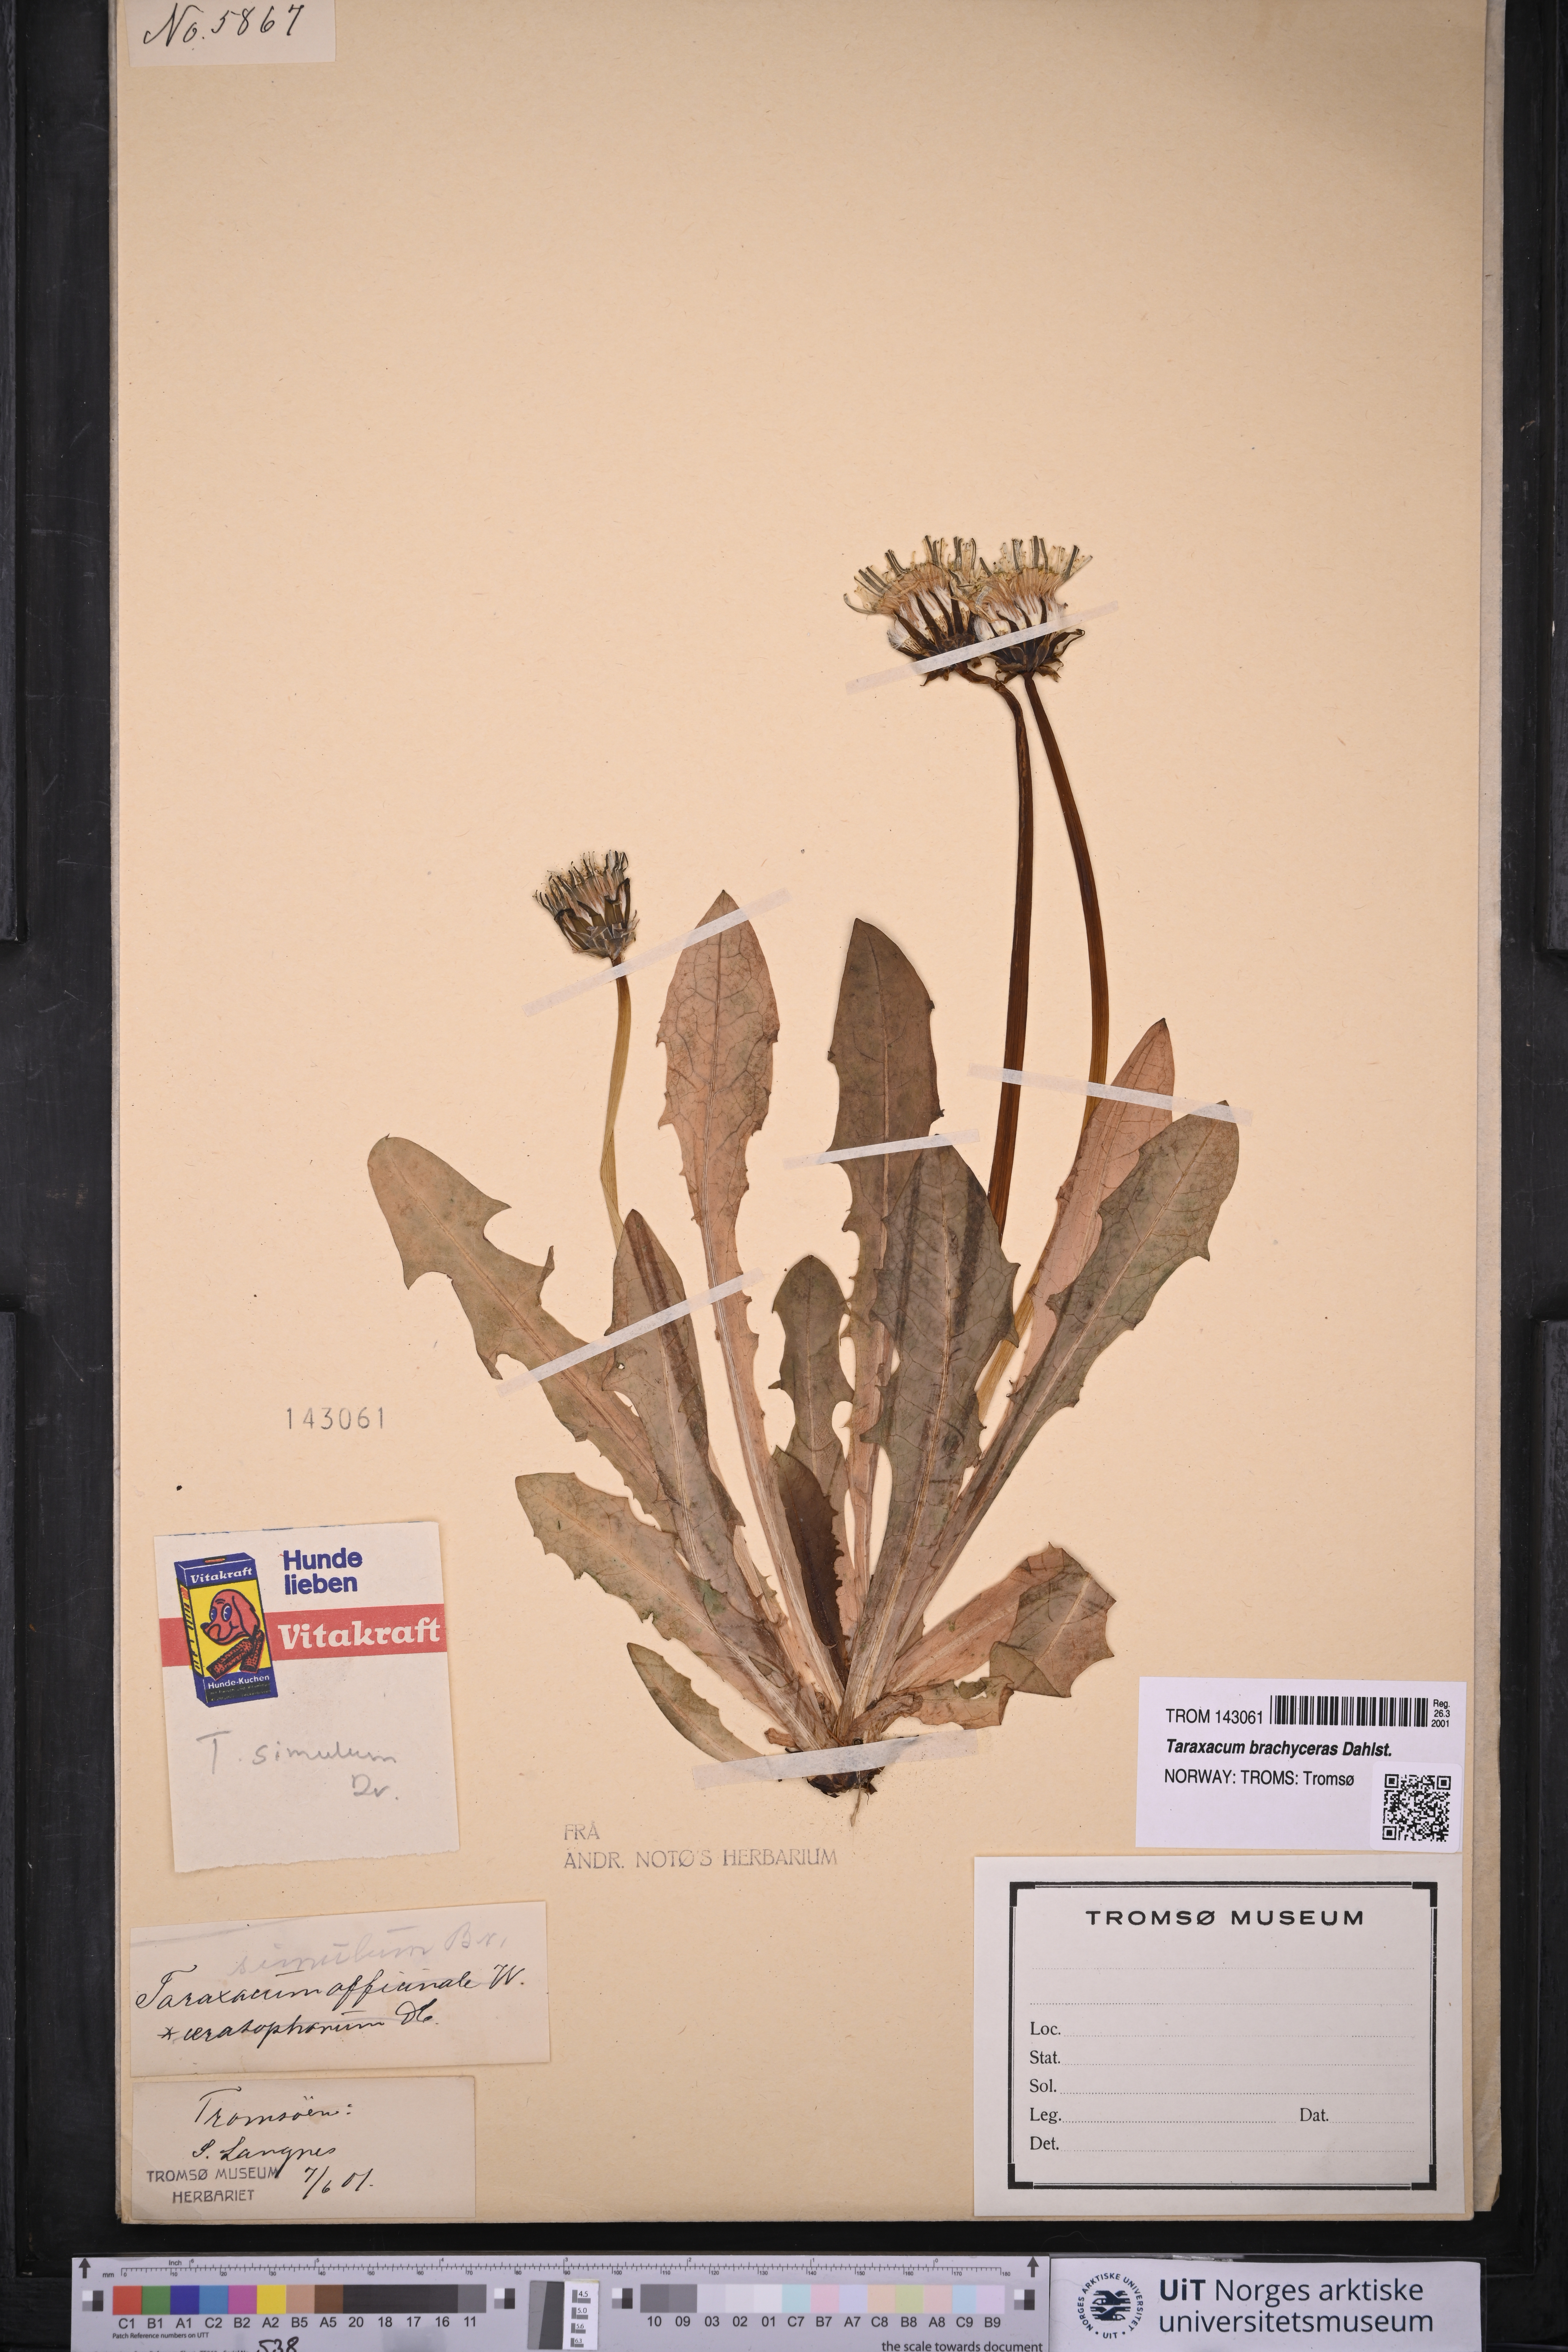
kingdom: Plantae
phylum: Tracheophyta
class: Magnoliopsida
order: Asterales
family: Asteraceae
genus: Taraxacum
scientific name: Taraxacum simulum
